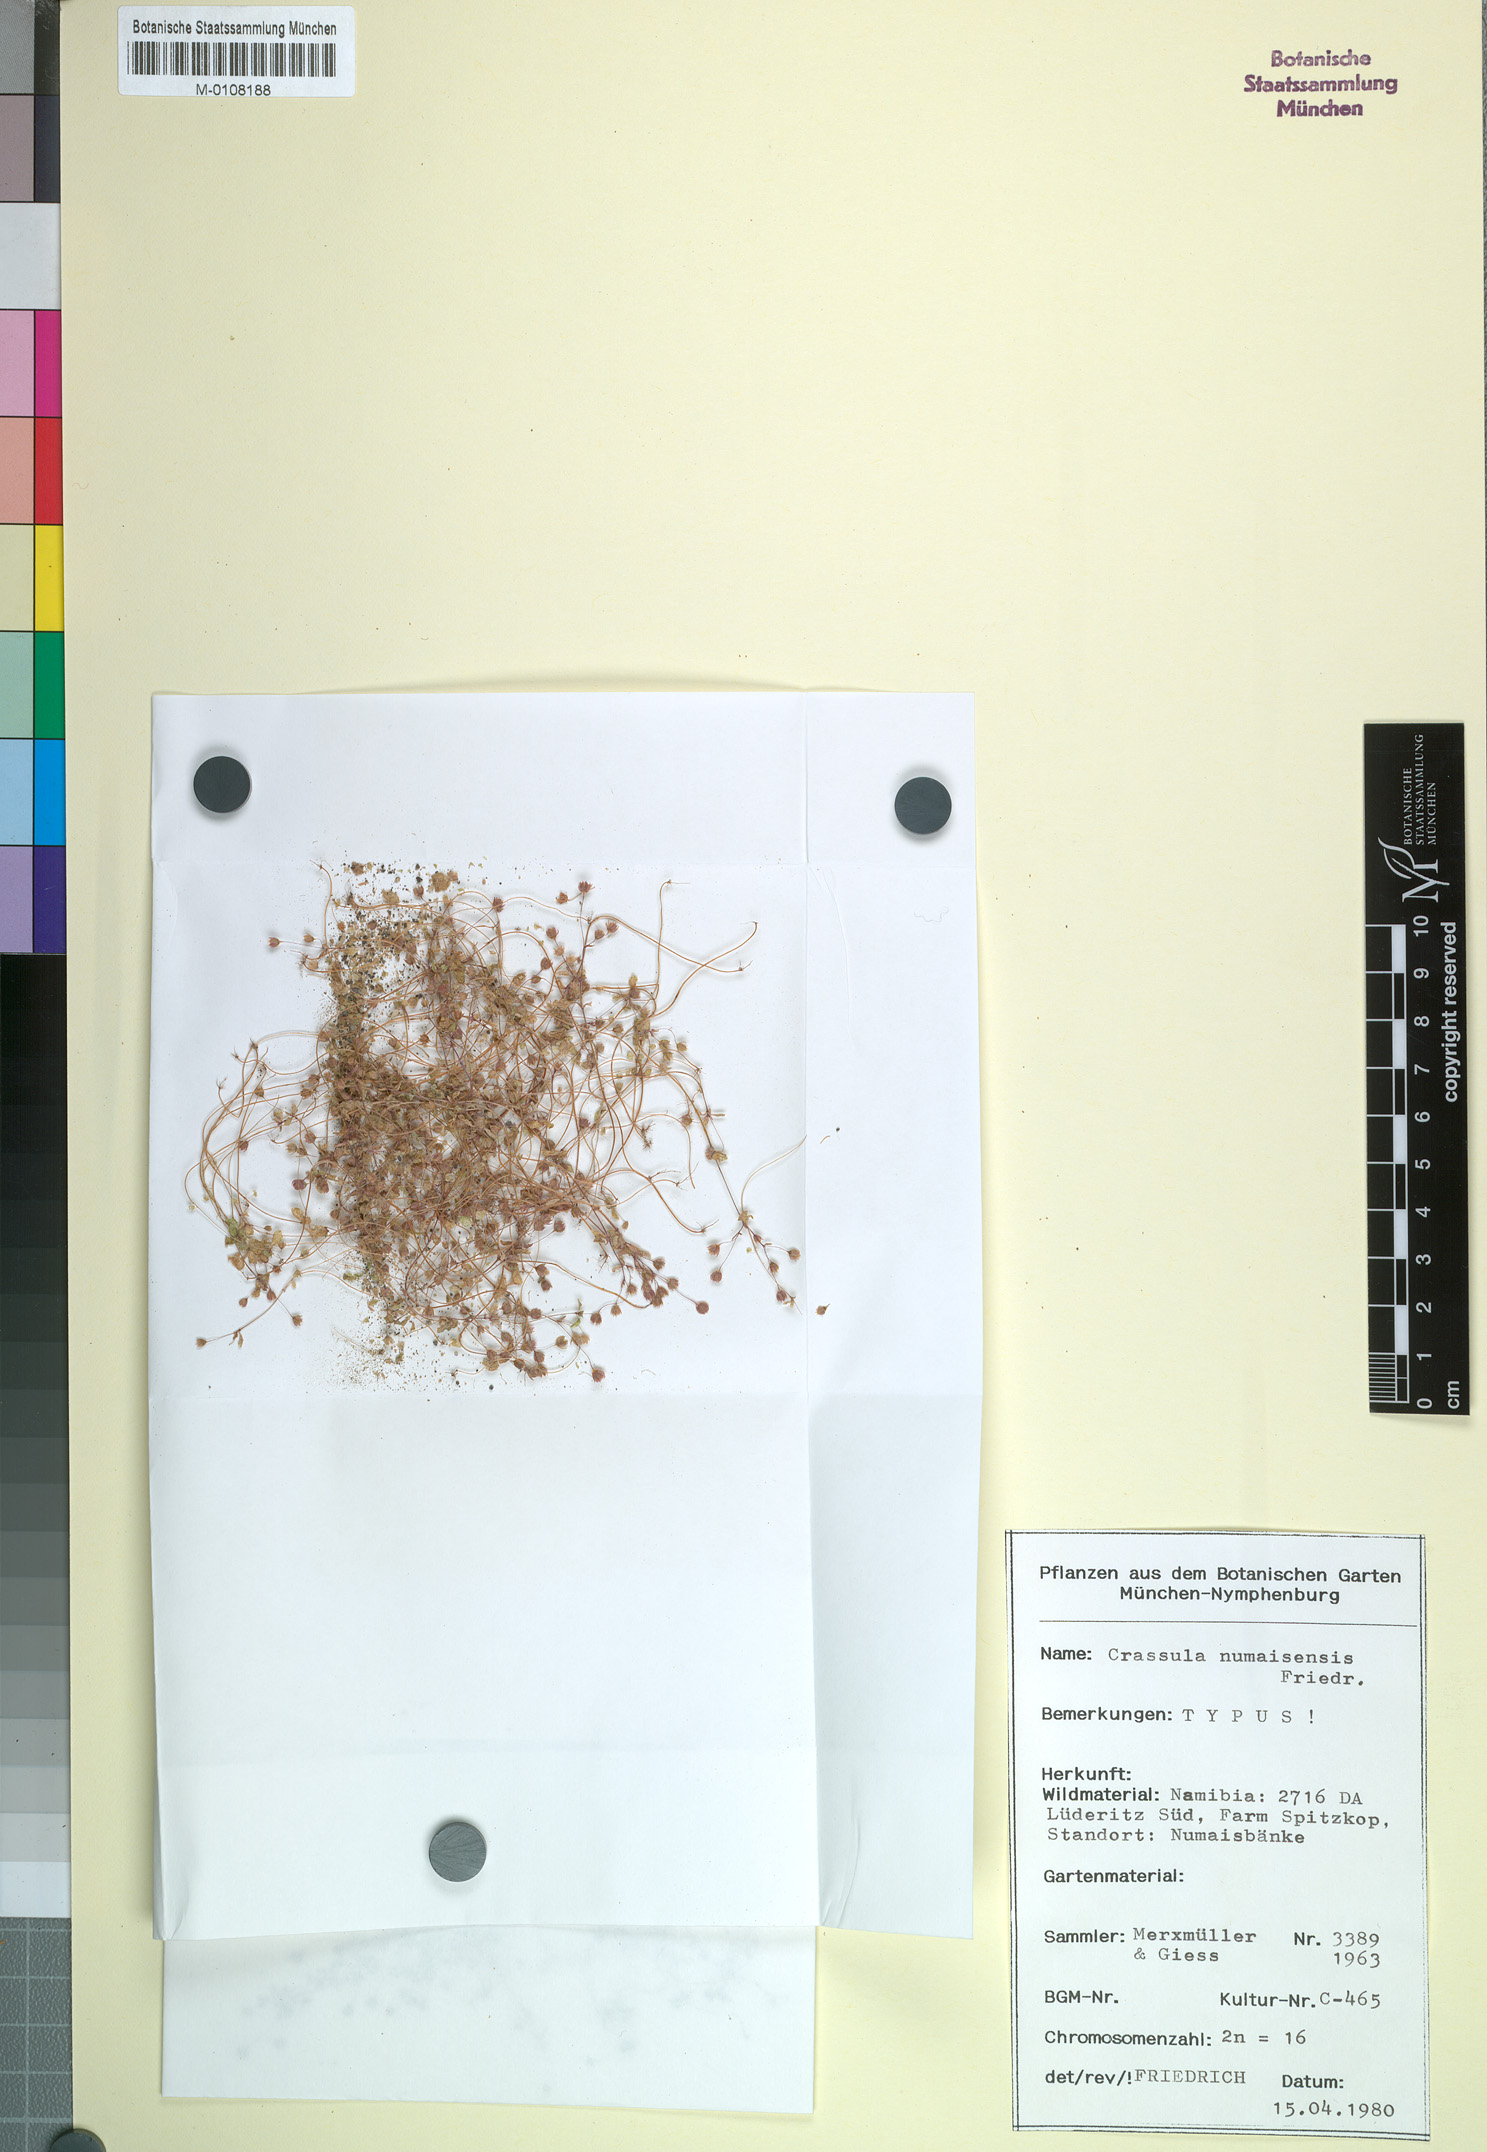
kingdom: Plantae
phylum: Tracheophyta
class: Magnoliopsida
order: Saxifragales
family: Crassulaceae
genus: Crassula
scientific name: Crassula numaisensis
